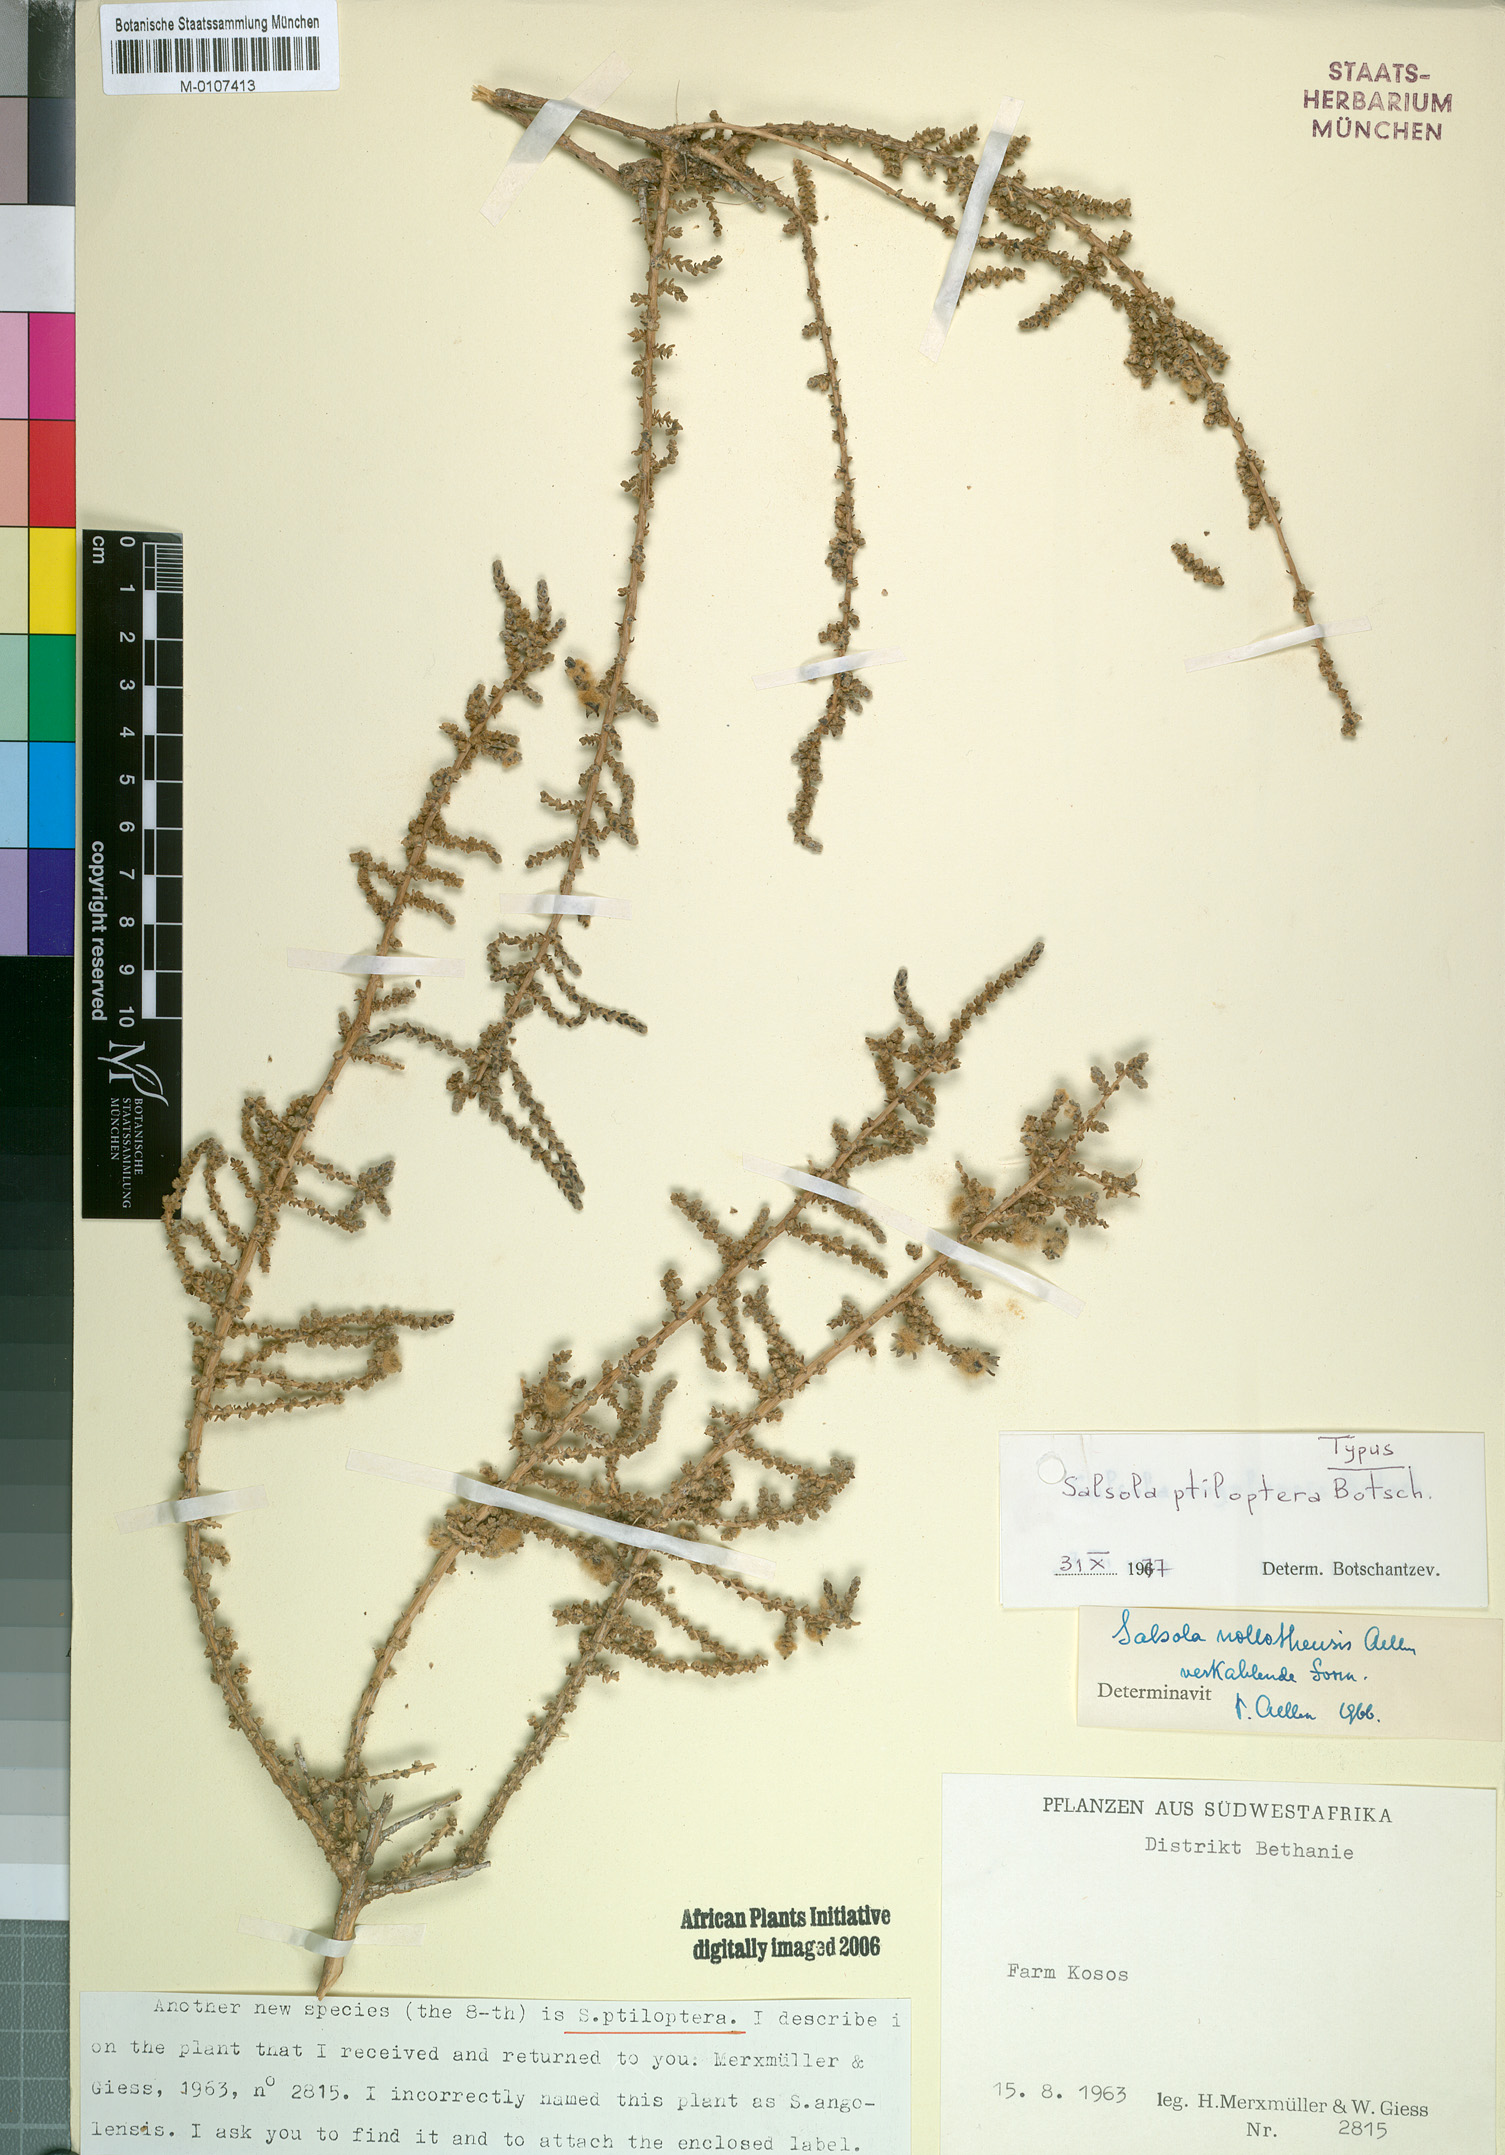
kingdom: Plantae
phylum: Tracheophyta
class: Magnoliopsida
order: Caryophyllales
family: Amaranthaceae
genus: Caroxylon
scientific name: Caroxylon ptilopterum
